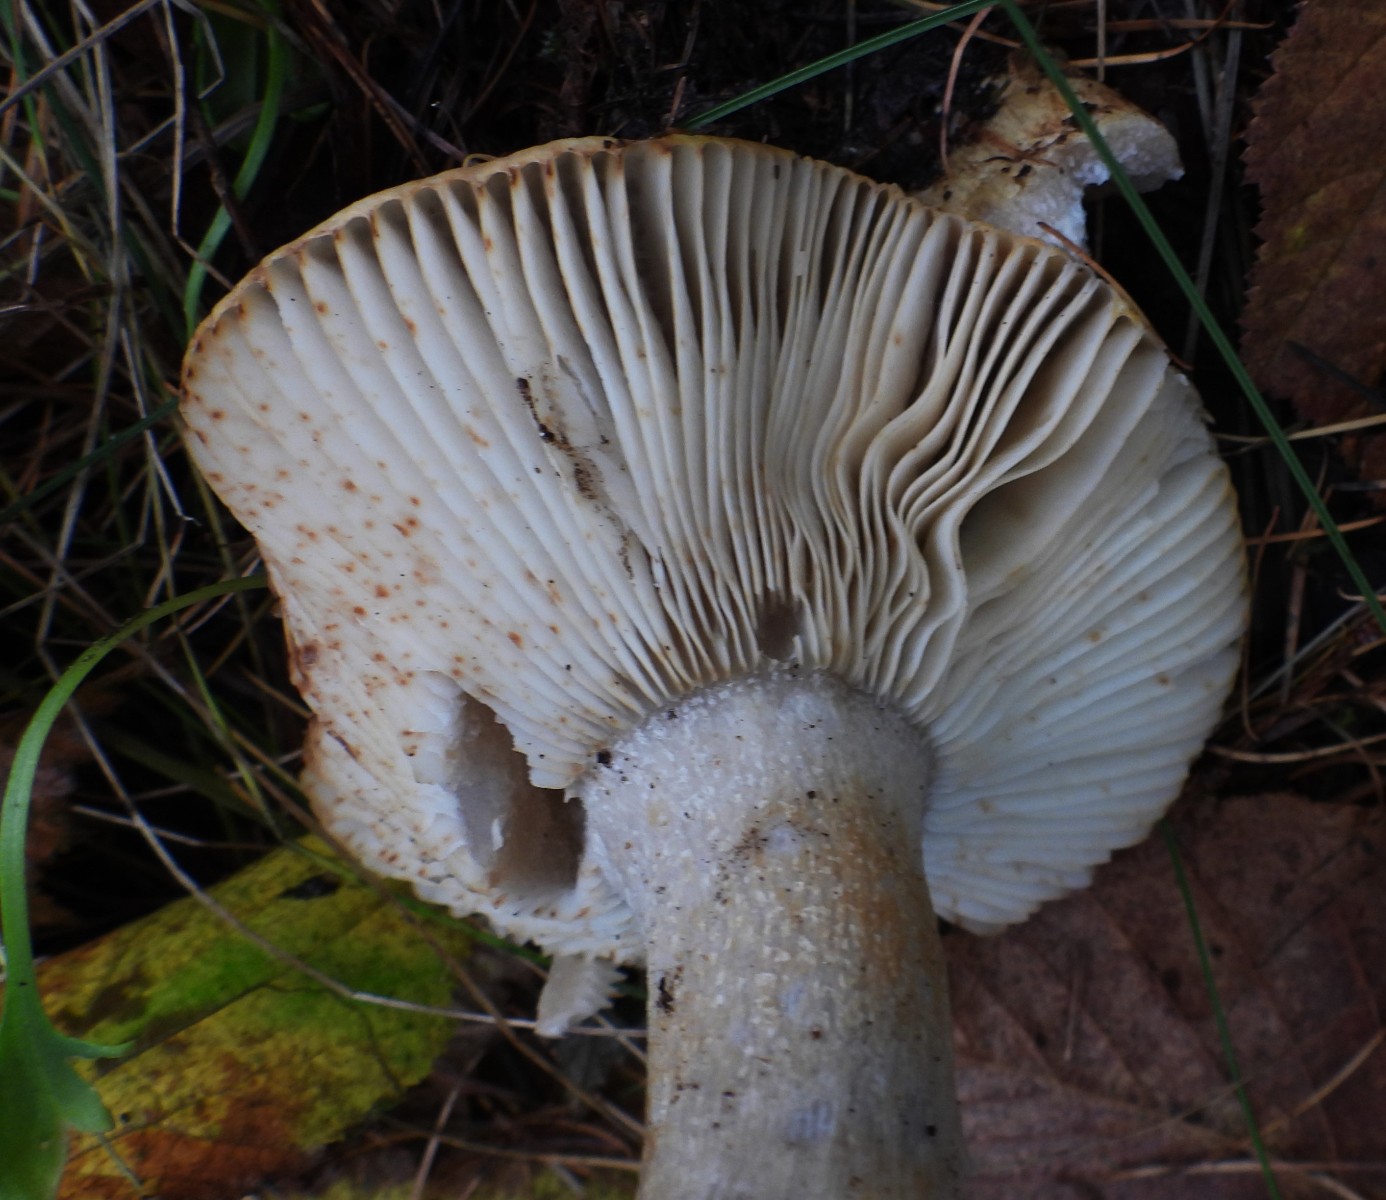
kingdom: Fungi
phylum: Basidiomycota
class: Agaricomycetes
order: Russulales
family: Russulaceae
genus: Russula
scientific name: Russula recondita
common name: mild kam-skørhat
